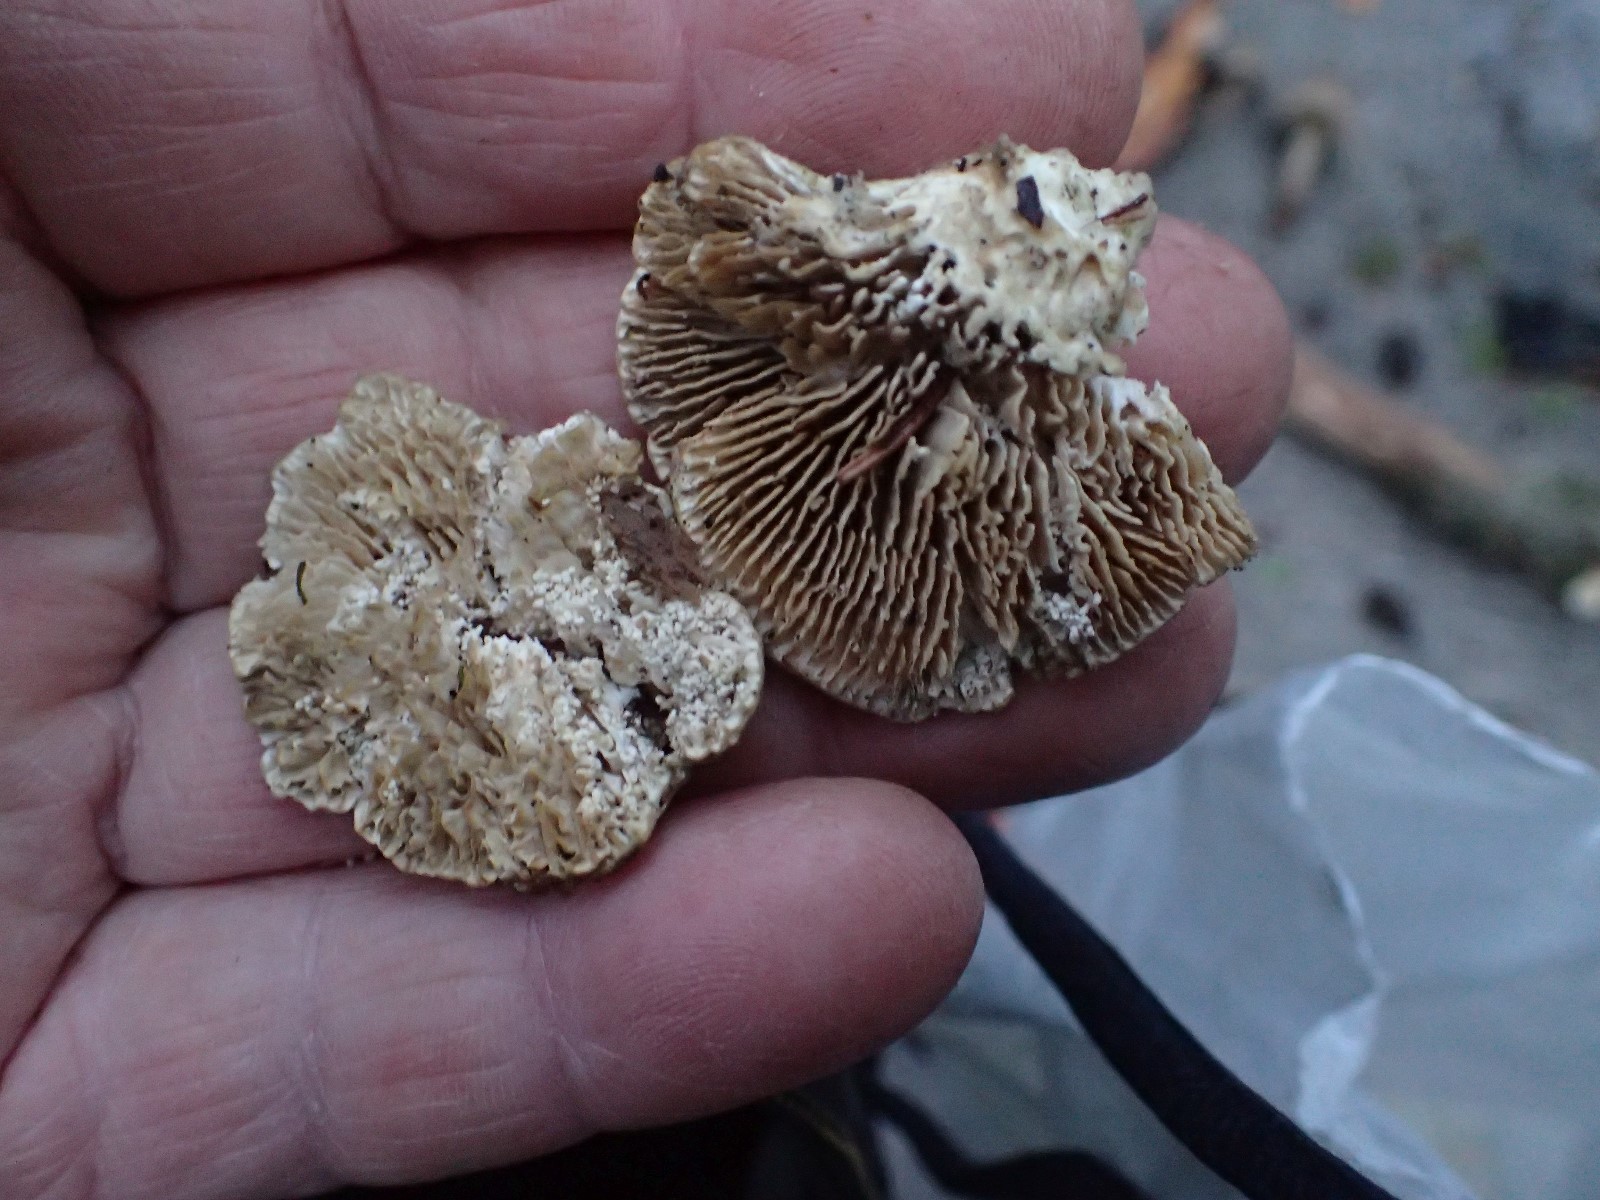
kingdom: Fungi
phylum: Basidiomycota
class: Agaricomycetes
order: Polyporales
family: Polyporaceae
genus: Lenzites
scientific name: Lenzites betulinus
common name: birke-læderporesvamp
